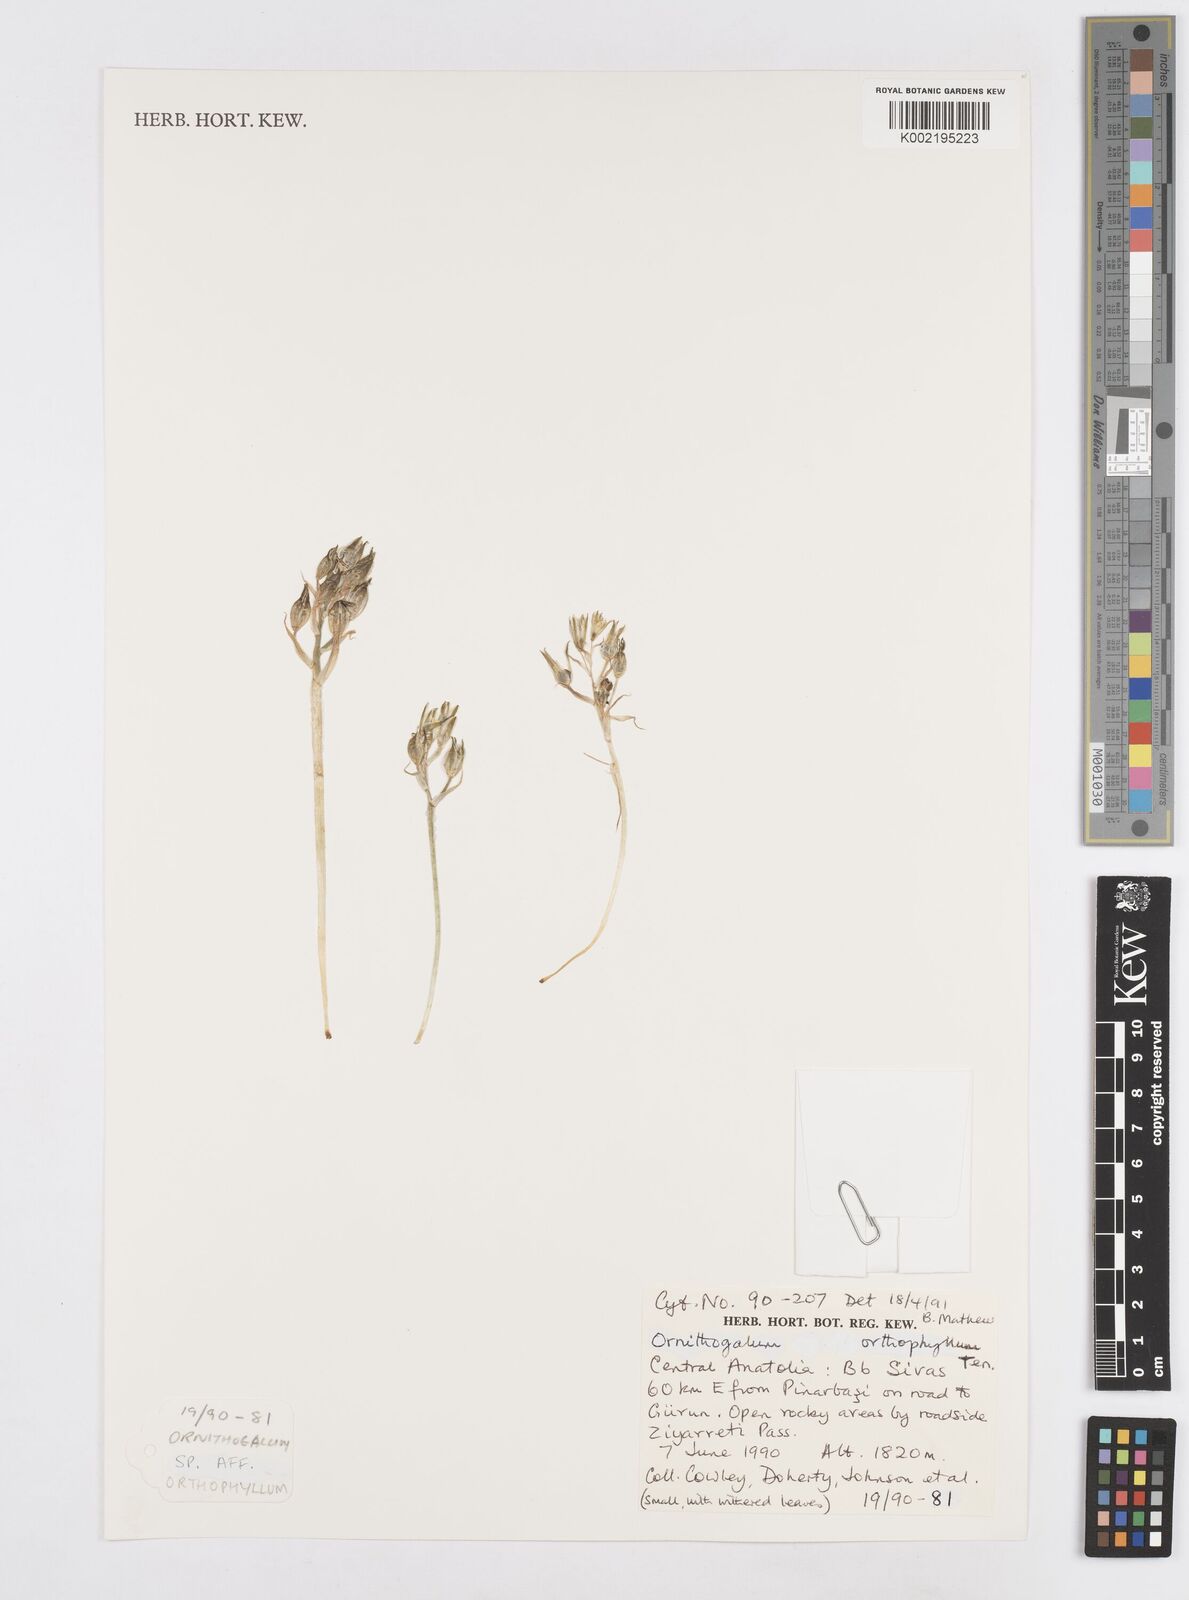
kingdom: Plantae
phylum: Tracheophyta
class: Liliopsida
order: Asparagales
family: Asparagaceae
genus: Ornithogalum
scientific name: Ornithogalum orthophyllum
